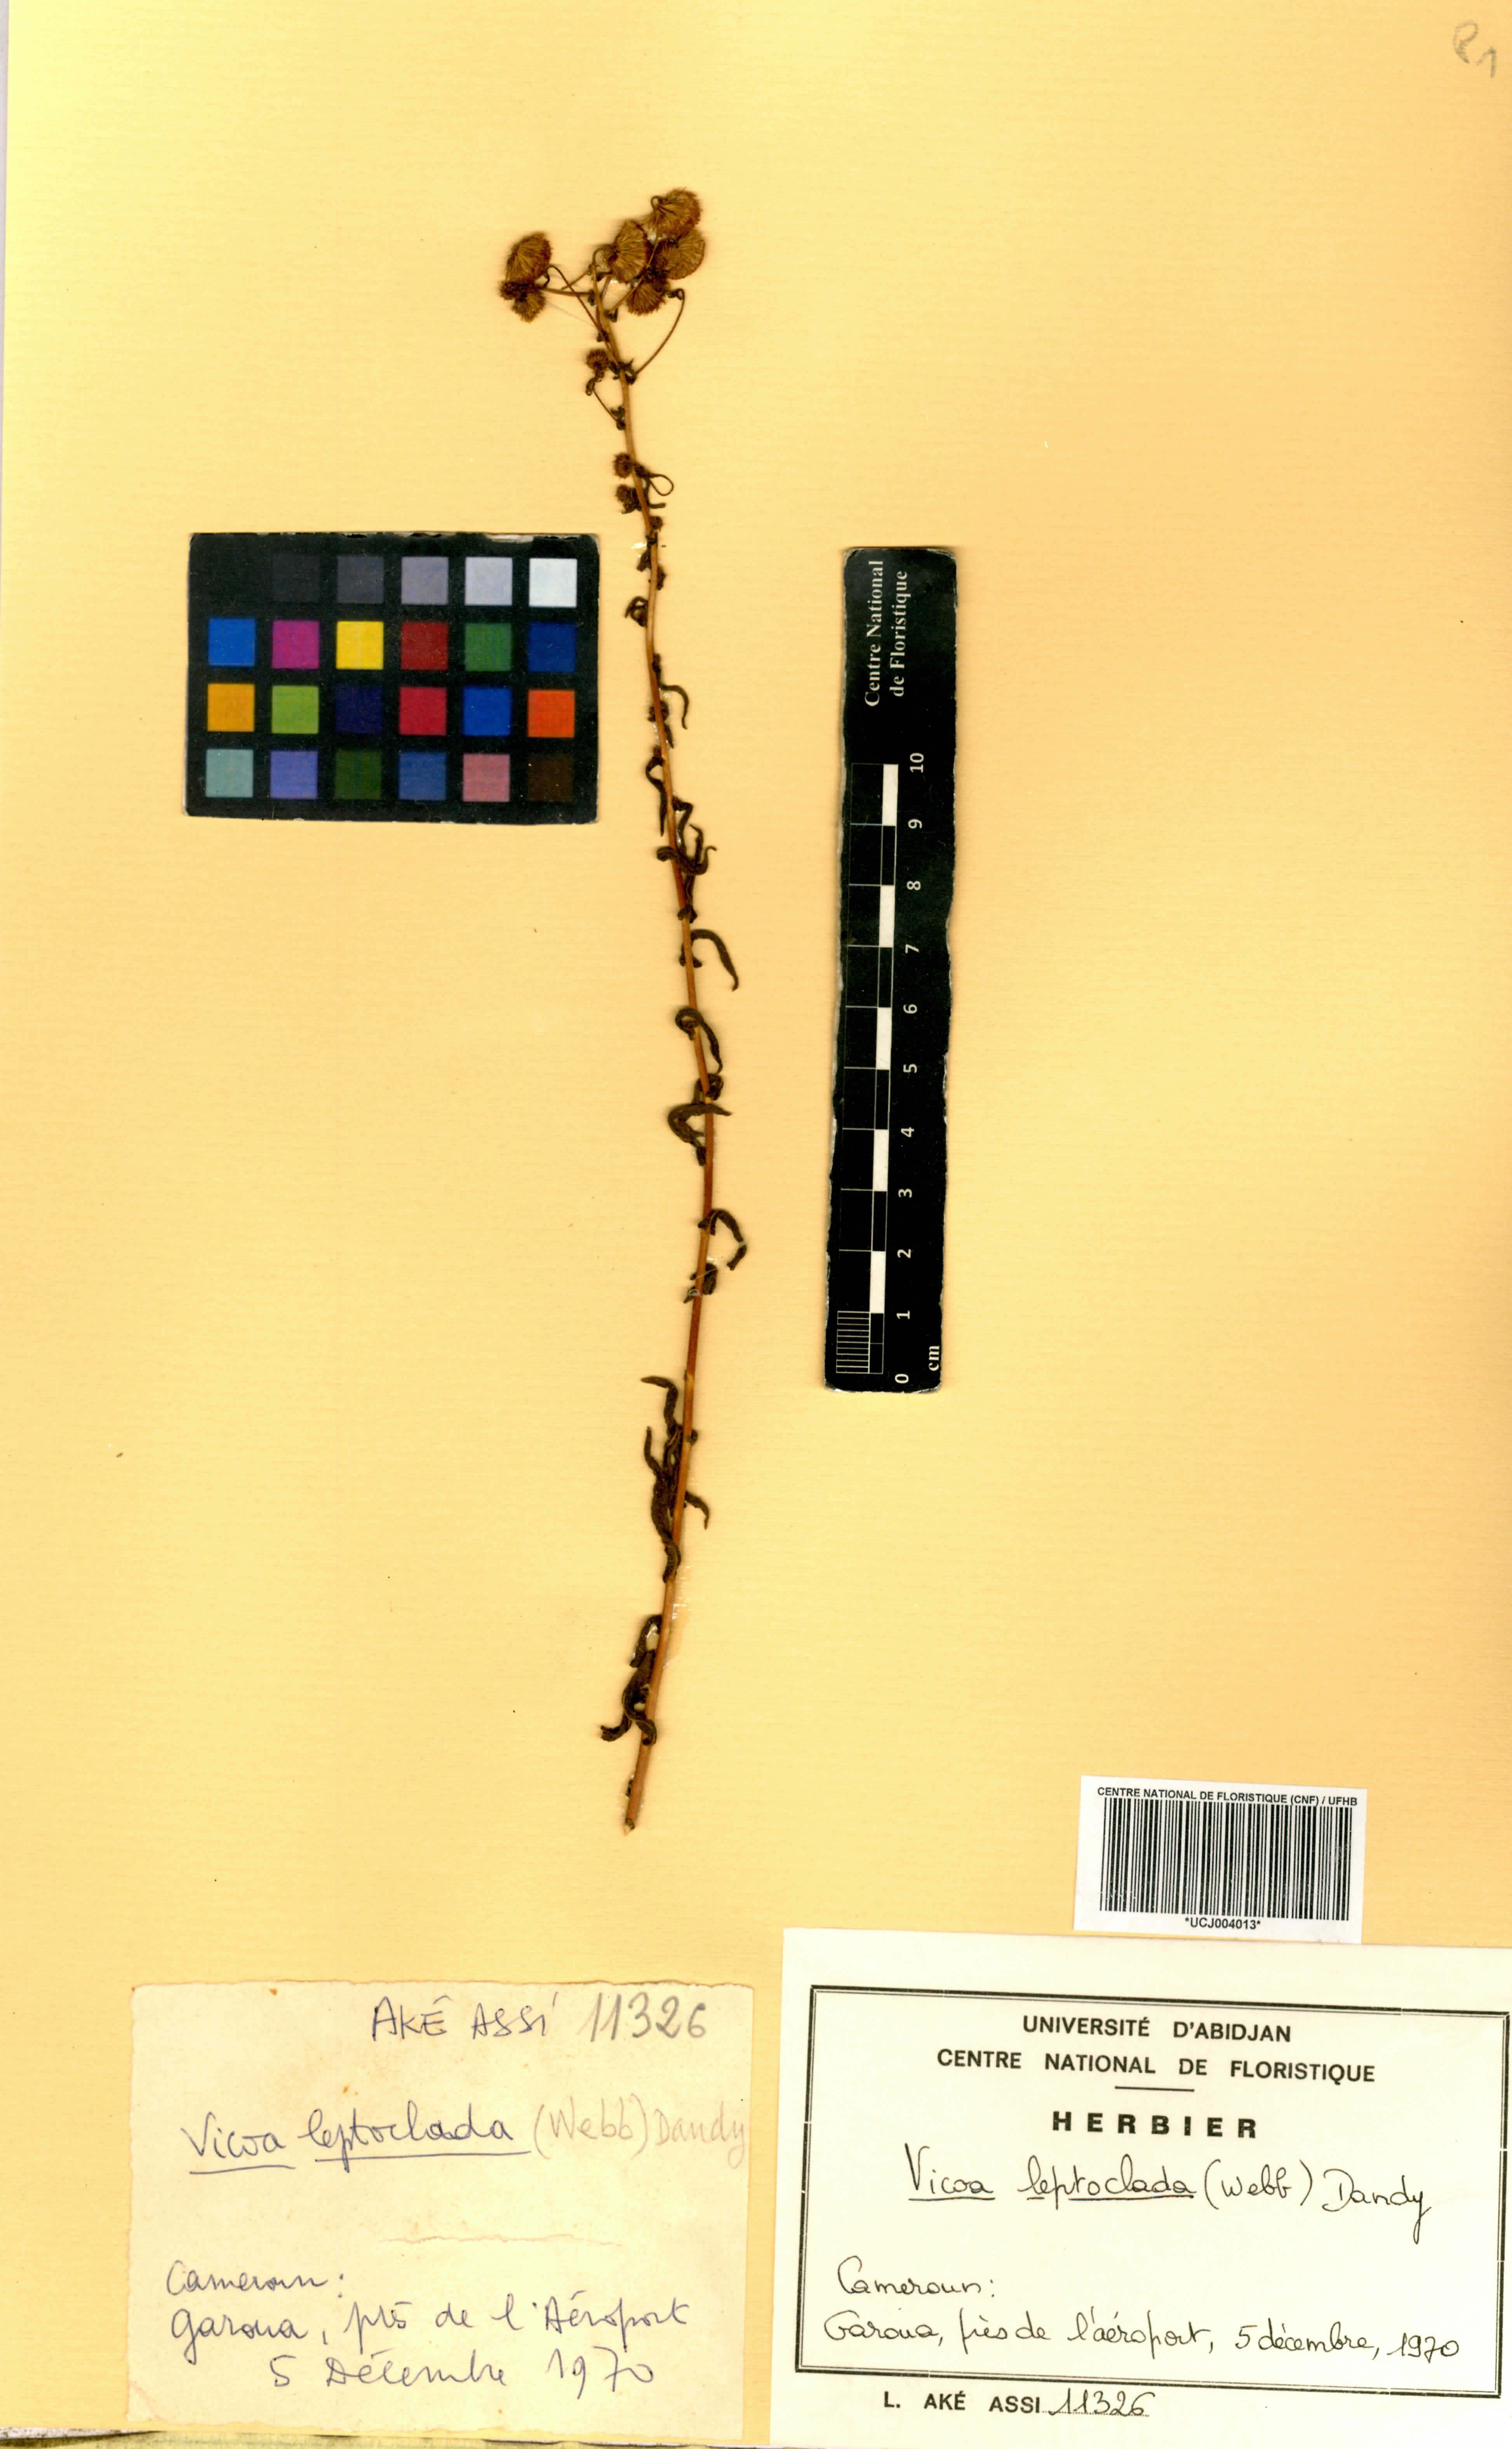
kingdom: Plantae
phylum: Tracheophyta
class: Magnoliopsida
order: Asterales
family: Asteraceae
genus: Vicoa
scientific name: Vicoa indica
